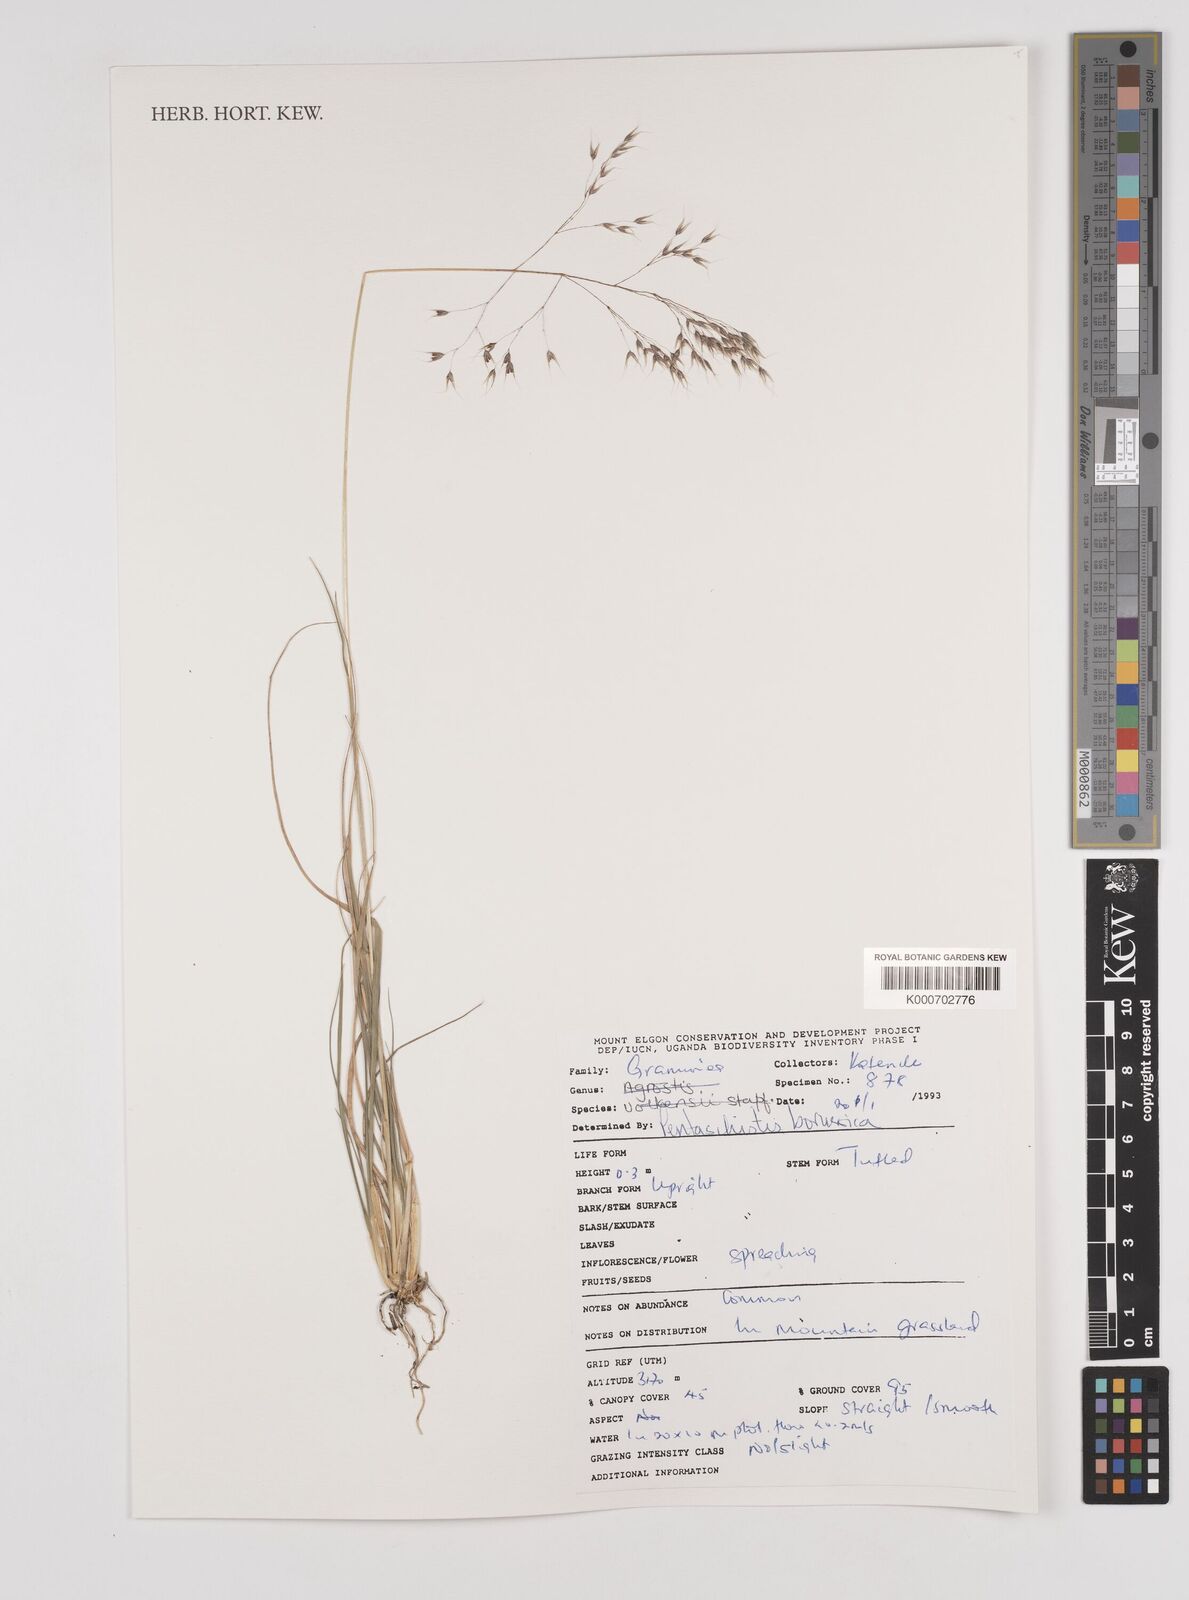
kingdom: Plantae
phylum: Tracheophyta
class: Liliopsida
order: Poales
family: Poaceae
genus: Pentameris
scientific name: Pentameris borussica
